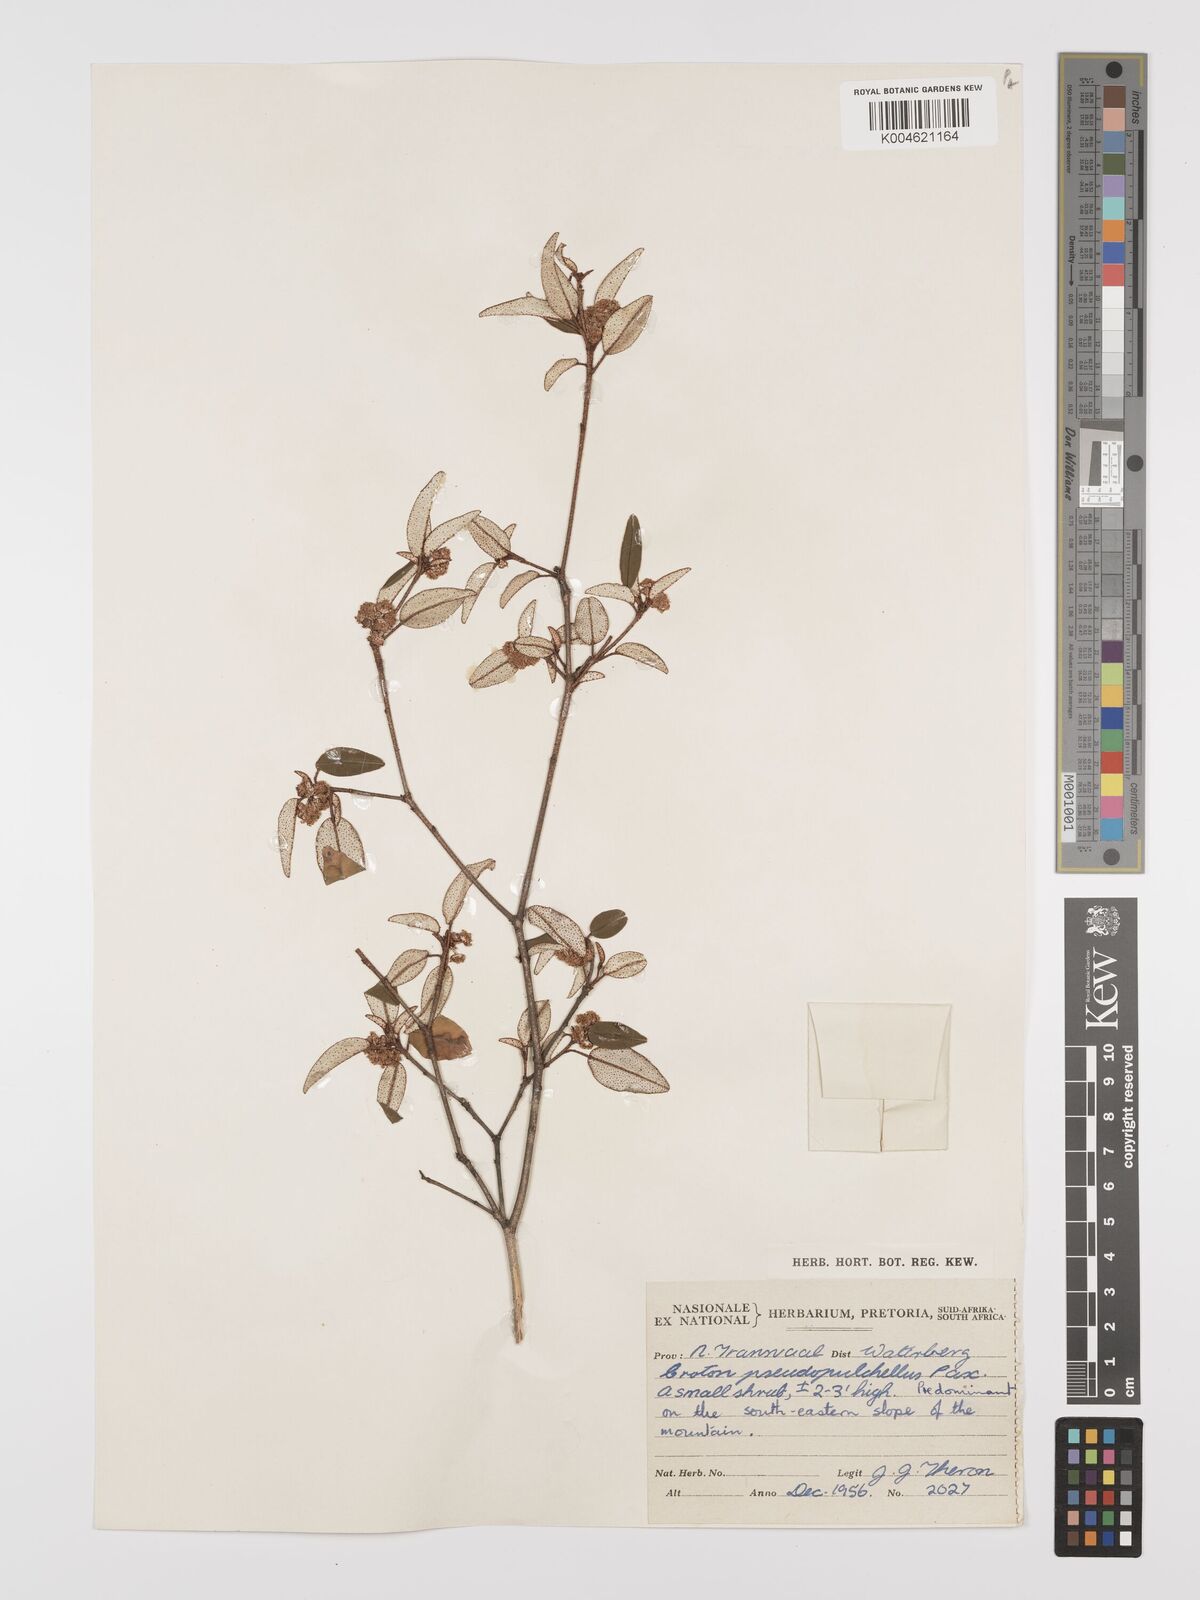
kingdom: Plantae
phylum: Tracheophyta
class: Magnoliopsida
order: Malpighiales
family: Euphorbiaceae
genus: Croton
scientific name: Croton pseudopulchellus
